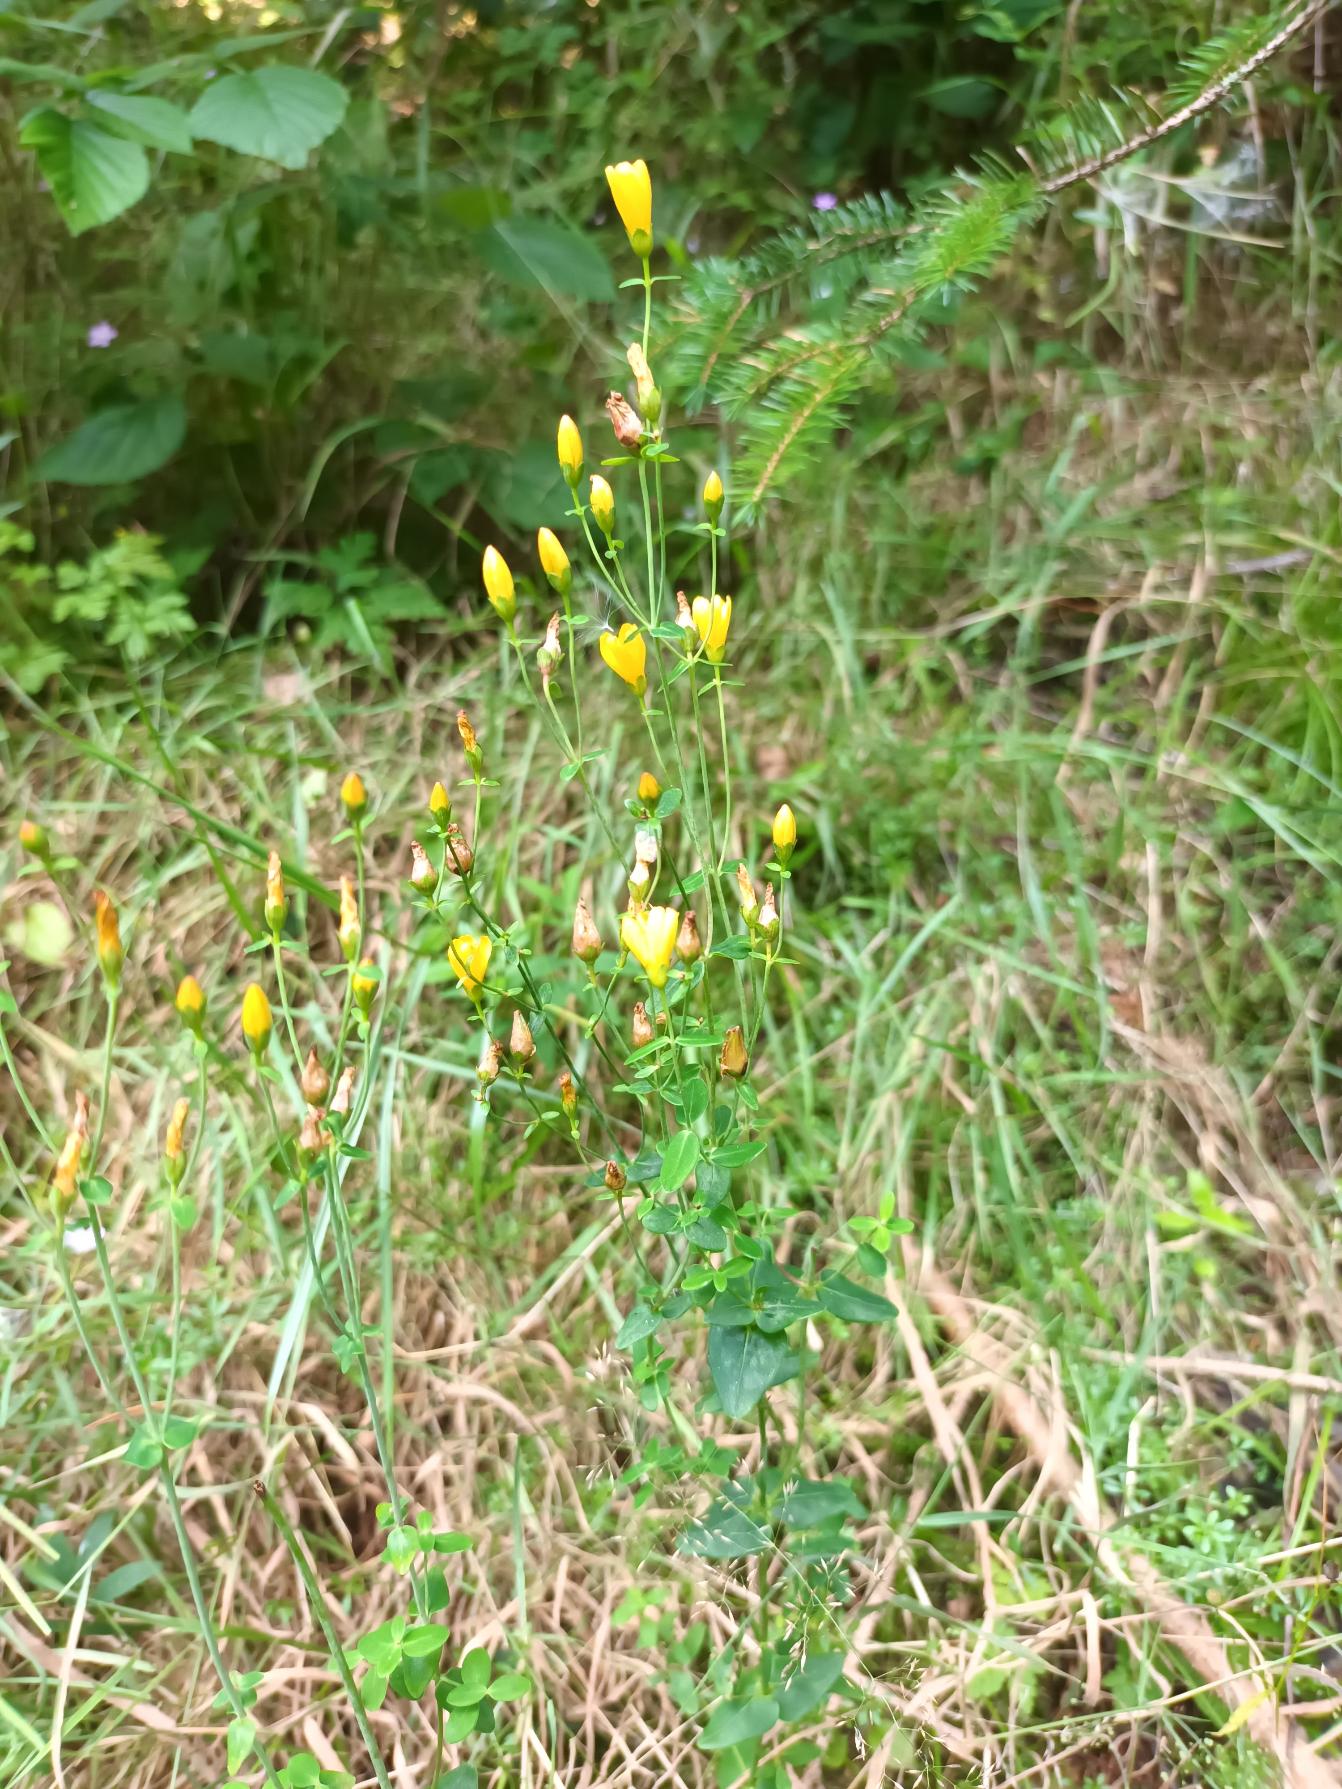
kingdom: Plantae
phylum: Tracheophyta
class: Magnoliopsida
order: Malpighiales
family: Hypericaceae
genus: Hypericum
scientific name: Hypericum pulchrum
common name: Smuk perikon
